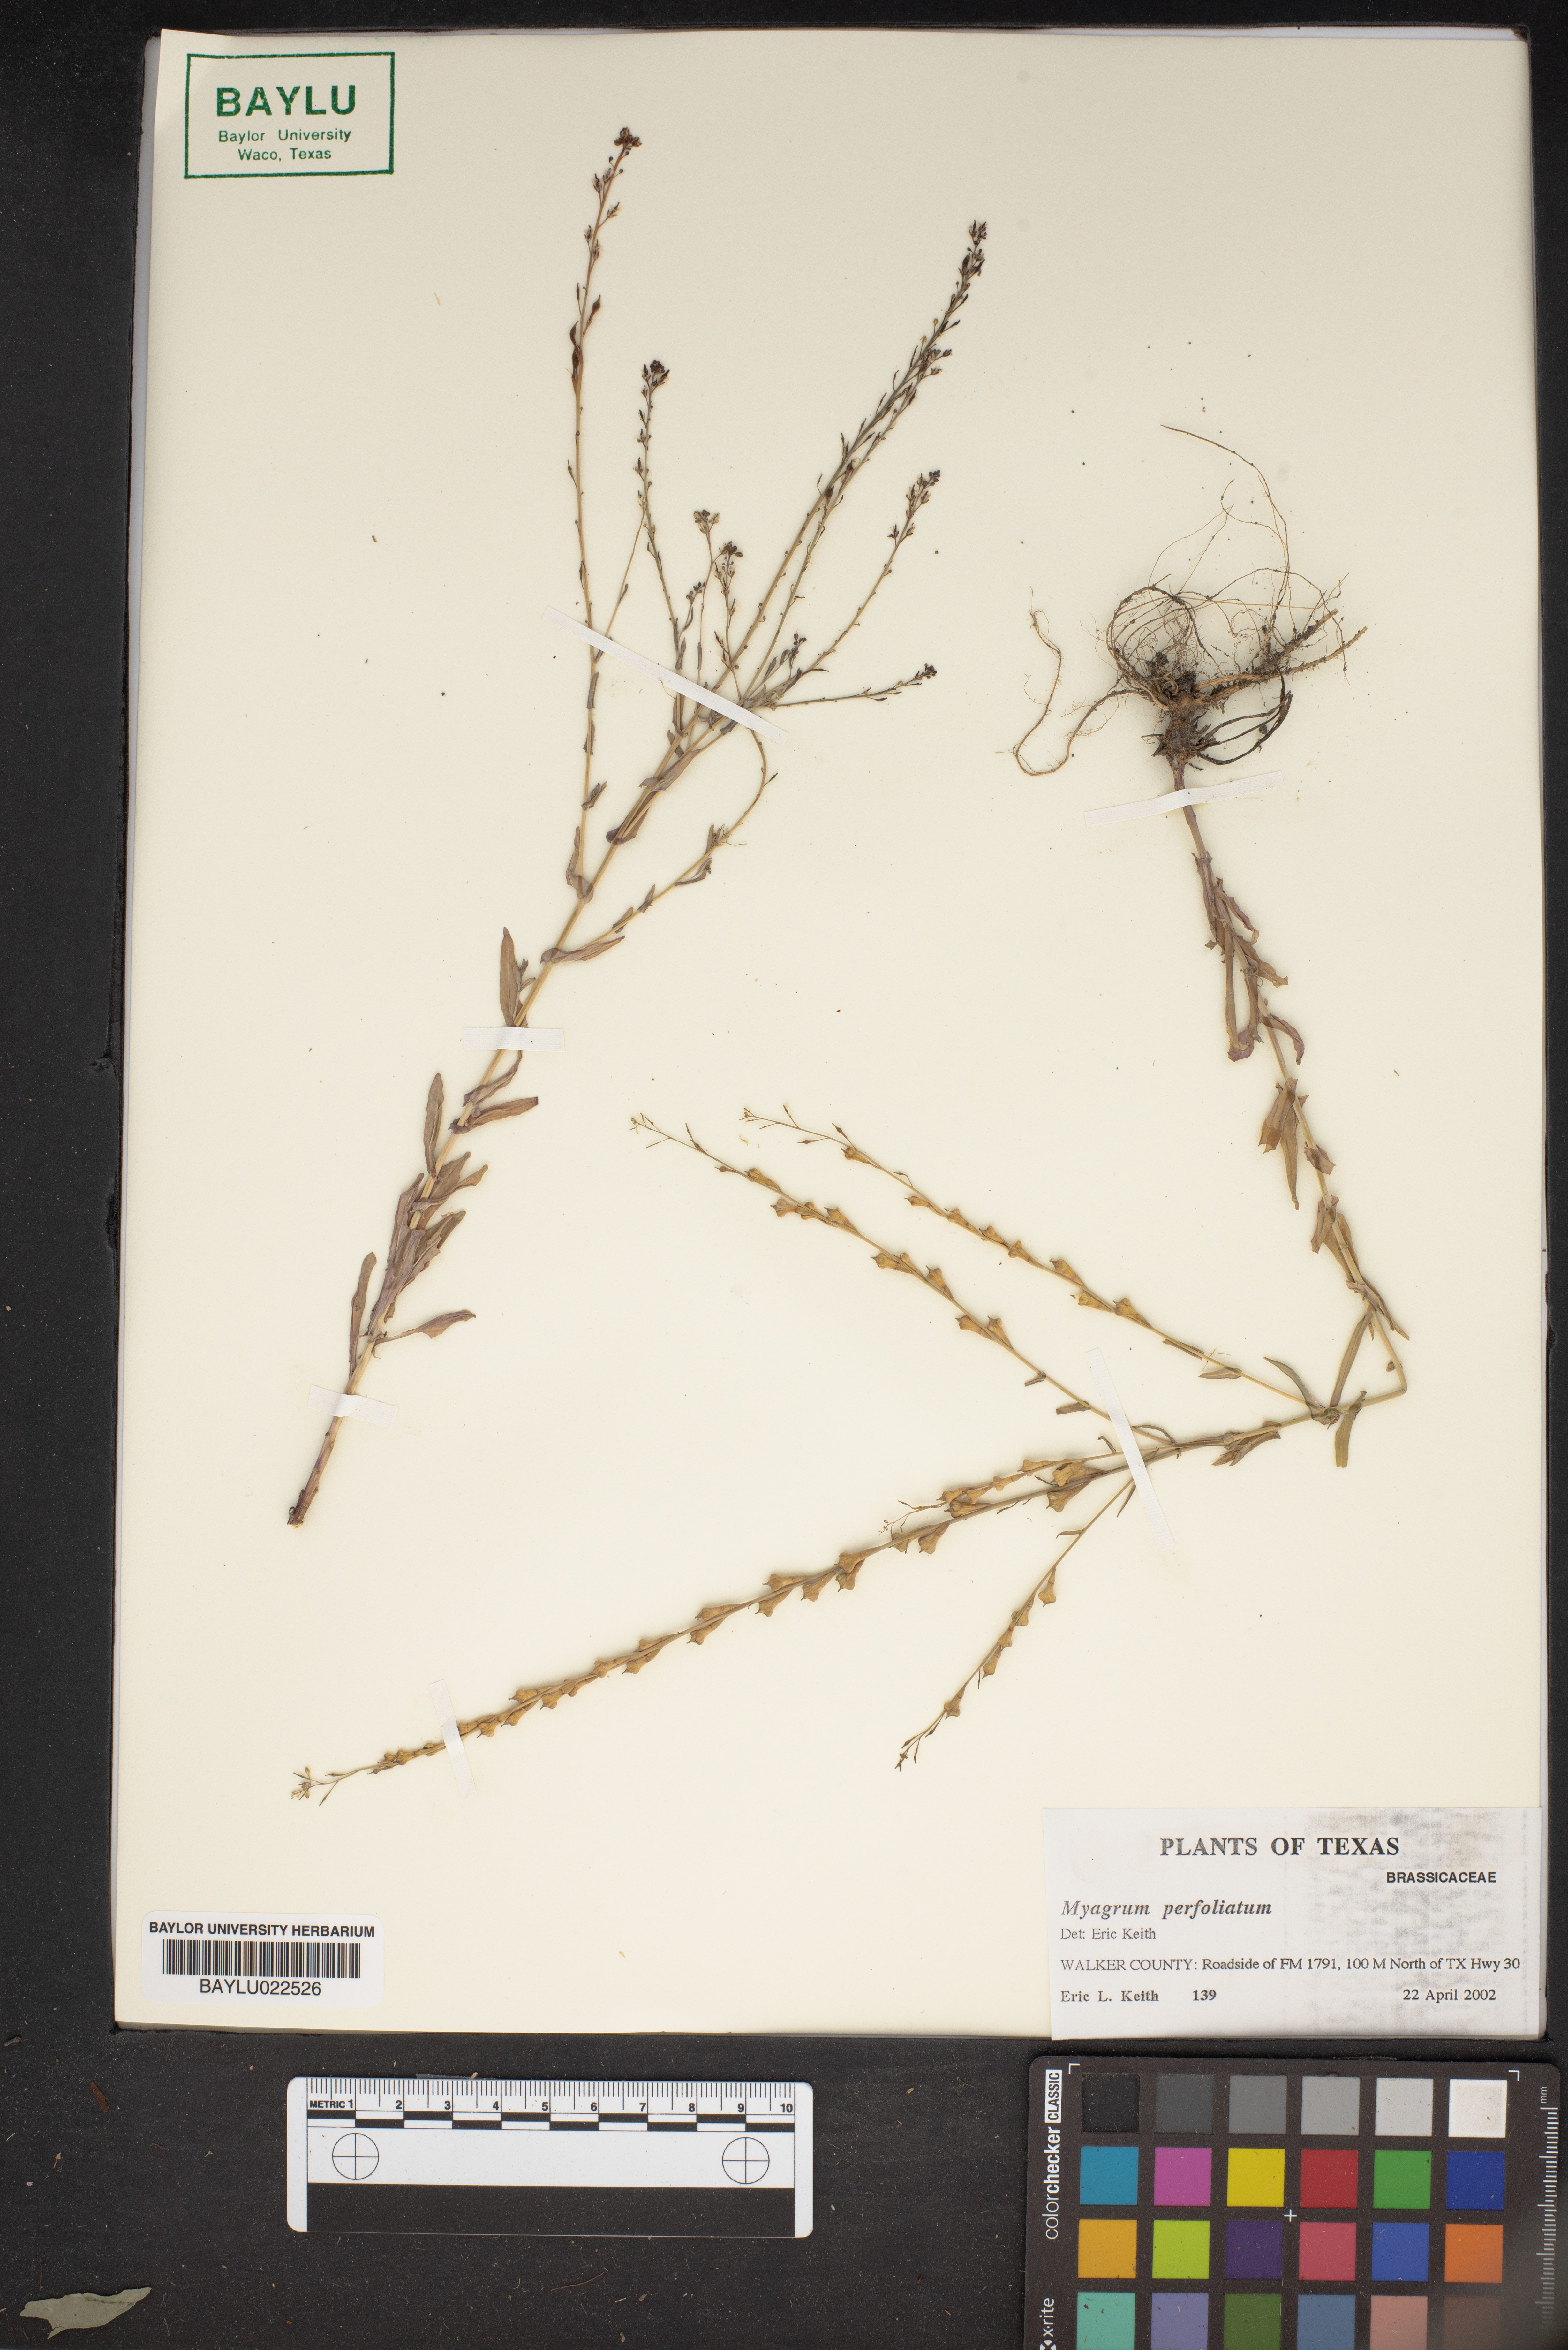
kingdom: Plantae
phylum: Tracheophyta
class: Magnoliopsida
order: Brassicales
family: Brassicaceae
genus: Myagrum
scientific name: Myagrum perfoliatum
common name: Mitre cress
